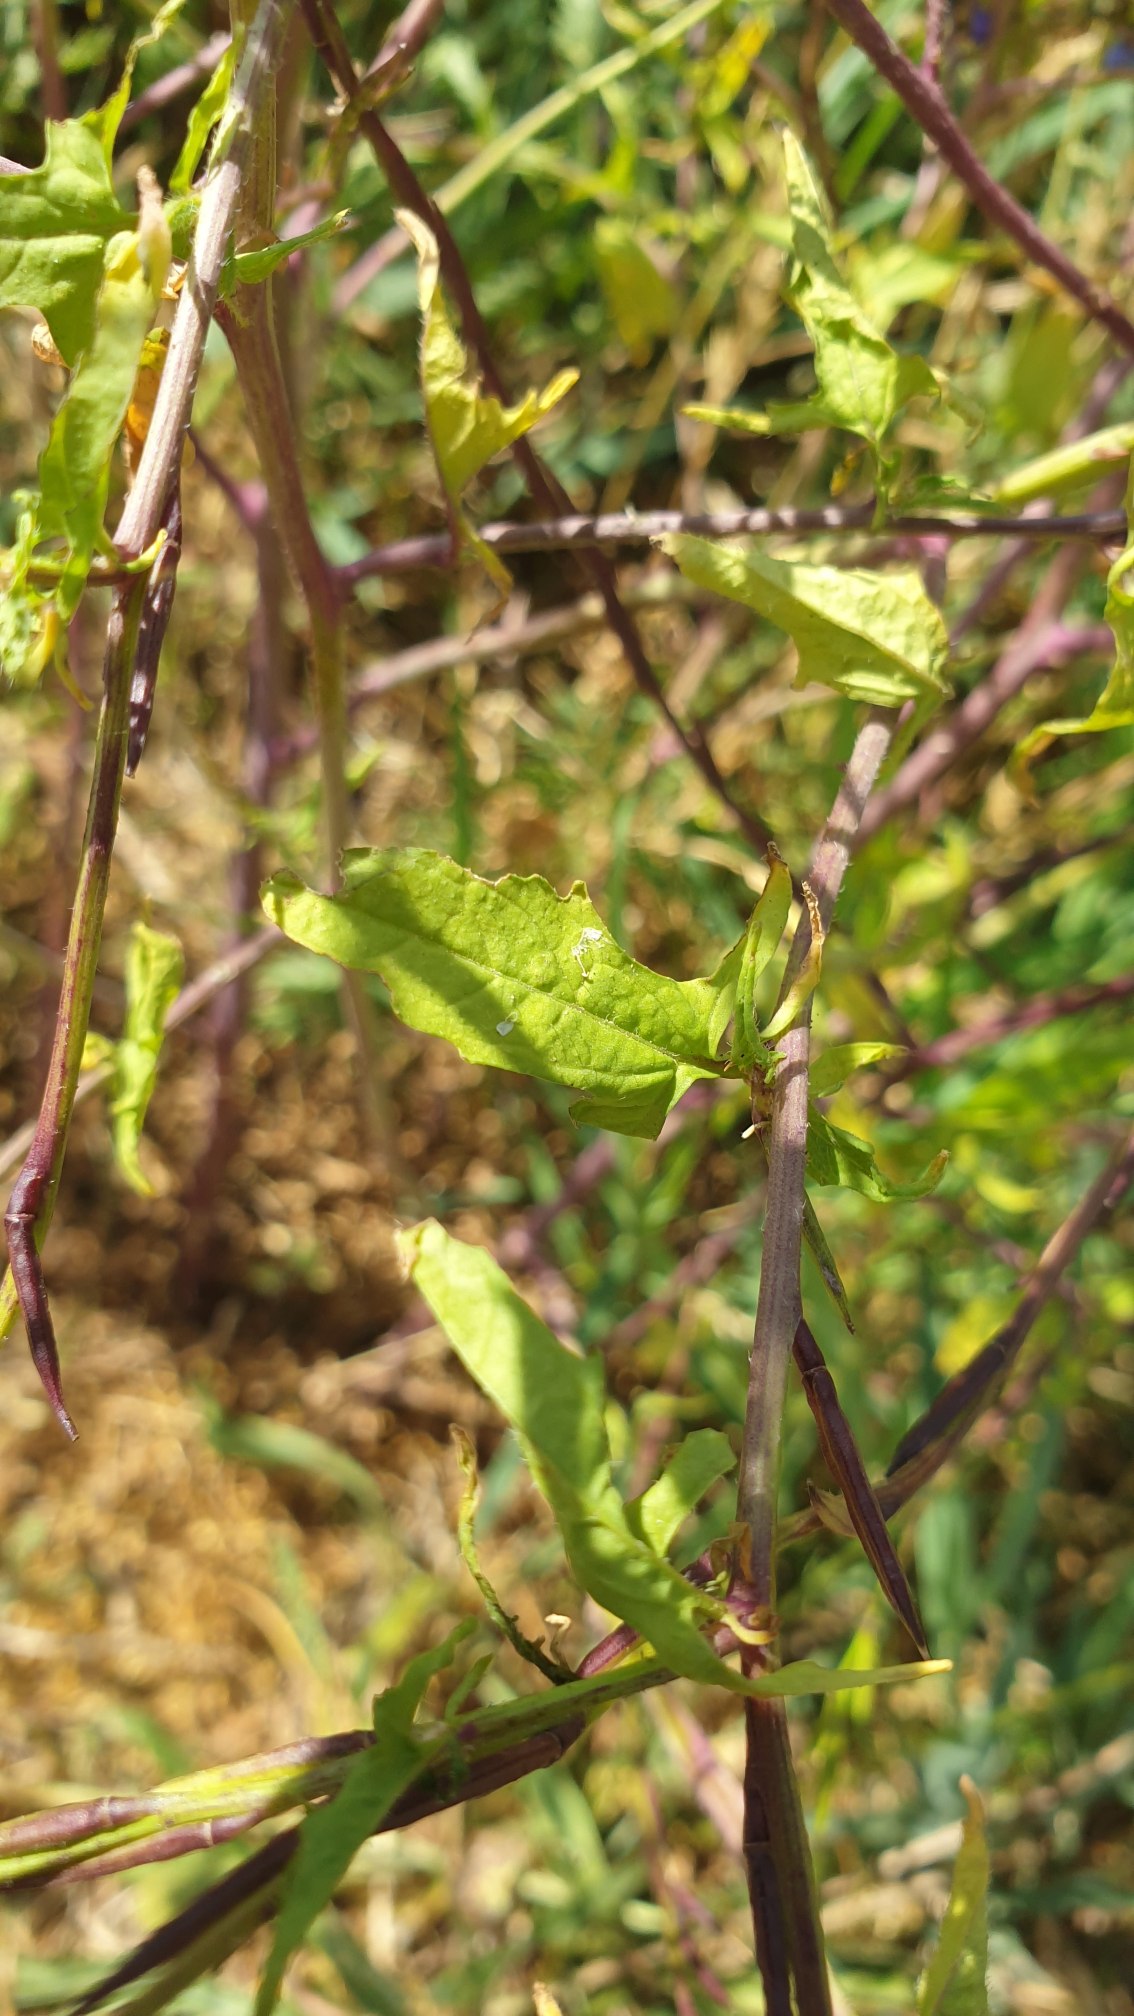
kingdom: Plantae
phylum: Tracheophyta
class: Magnoliopsida
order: Brassicales
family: Brassicaceae
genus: Sisymbrium
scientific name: Sisymbrium officinale
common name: Rank vejsennep
